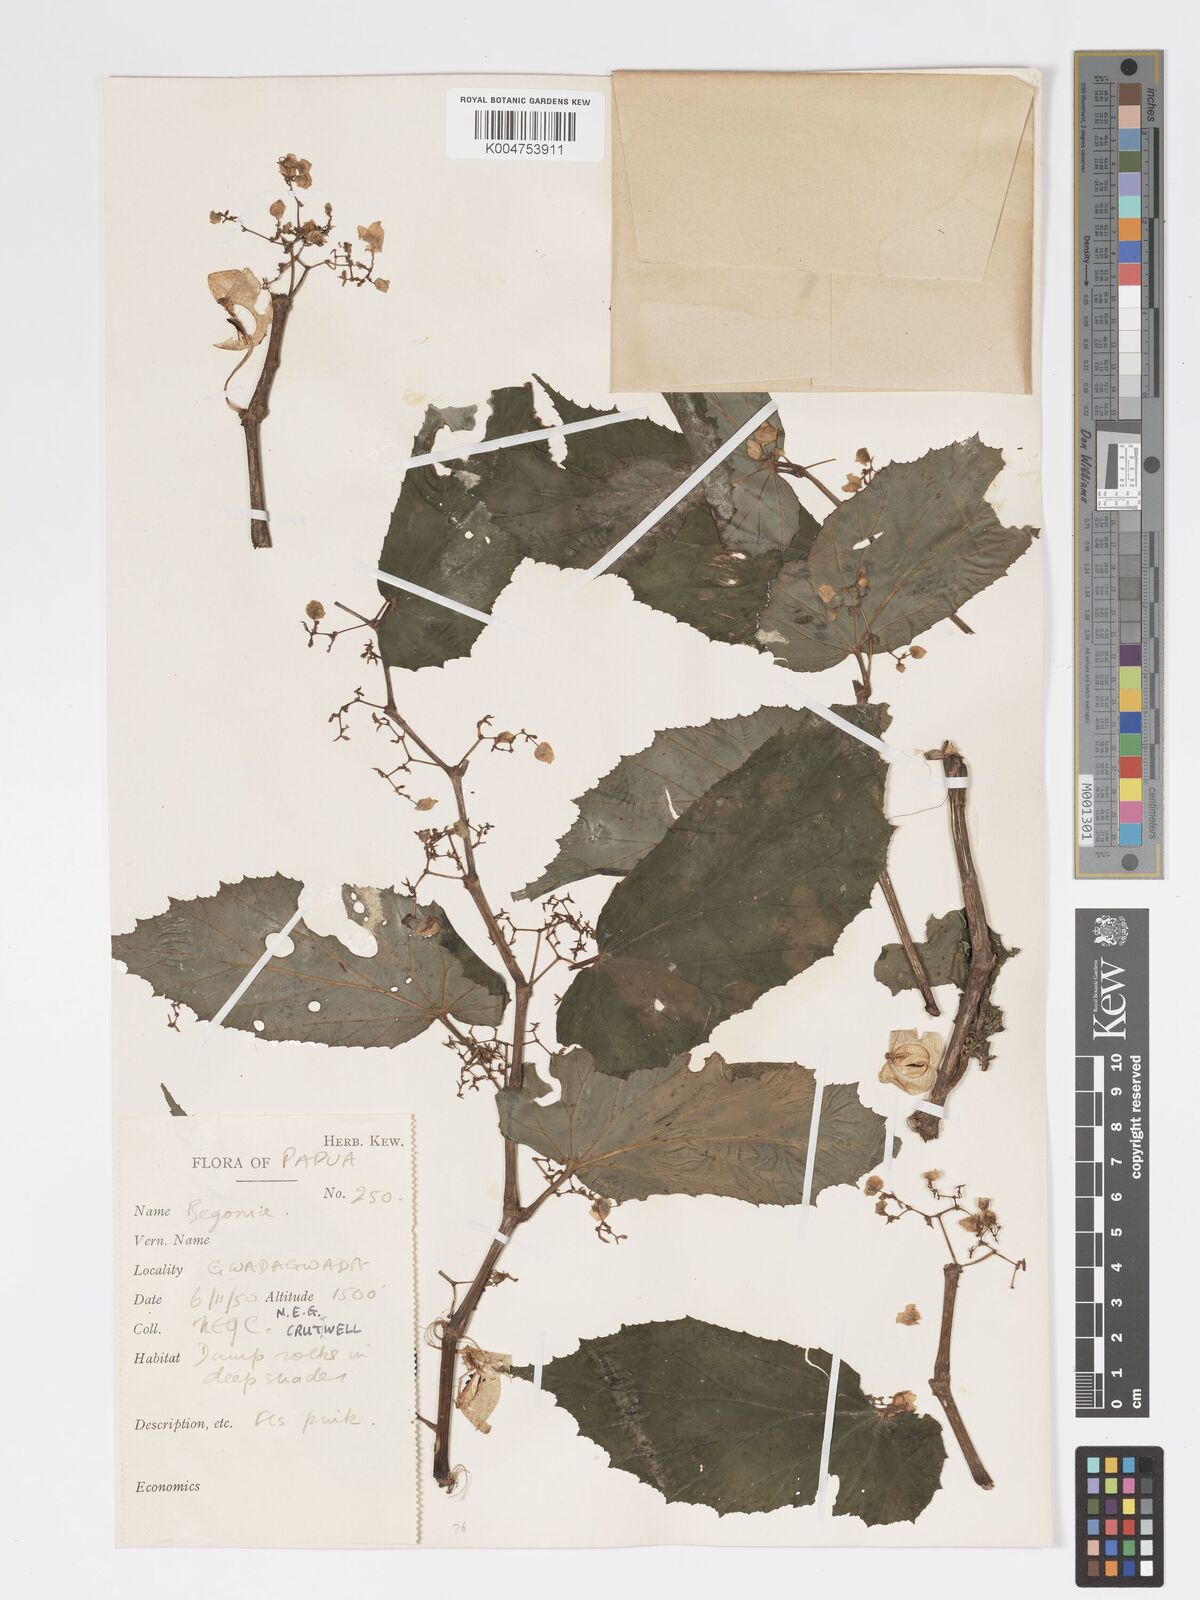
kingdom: Plantae
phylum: Tracheophyta
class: Magnoliopsida
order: Cucurbitales
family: Begoniaceae
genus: Begonia
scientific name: Begonia fruticella
